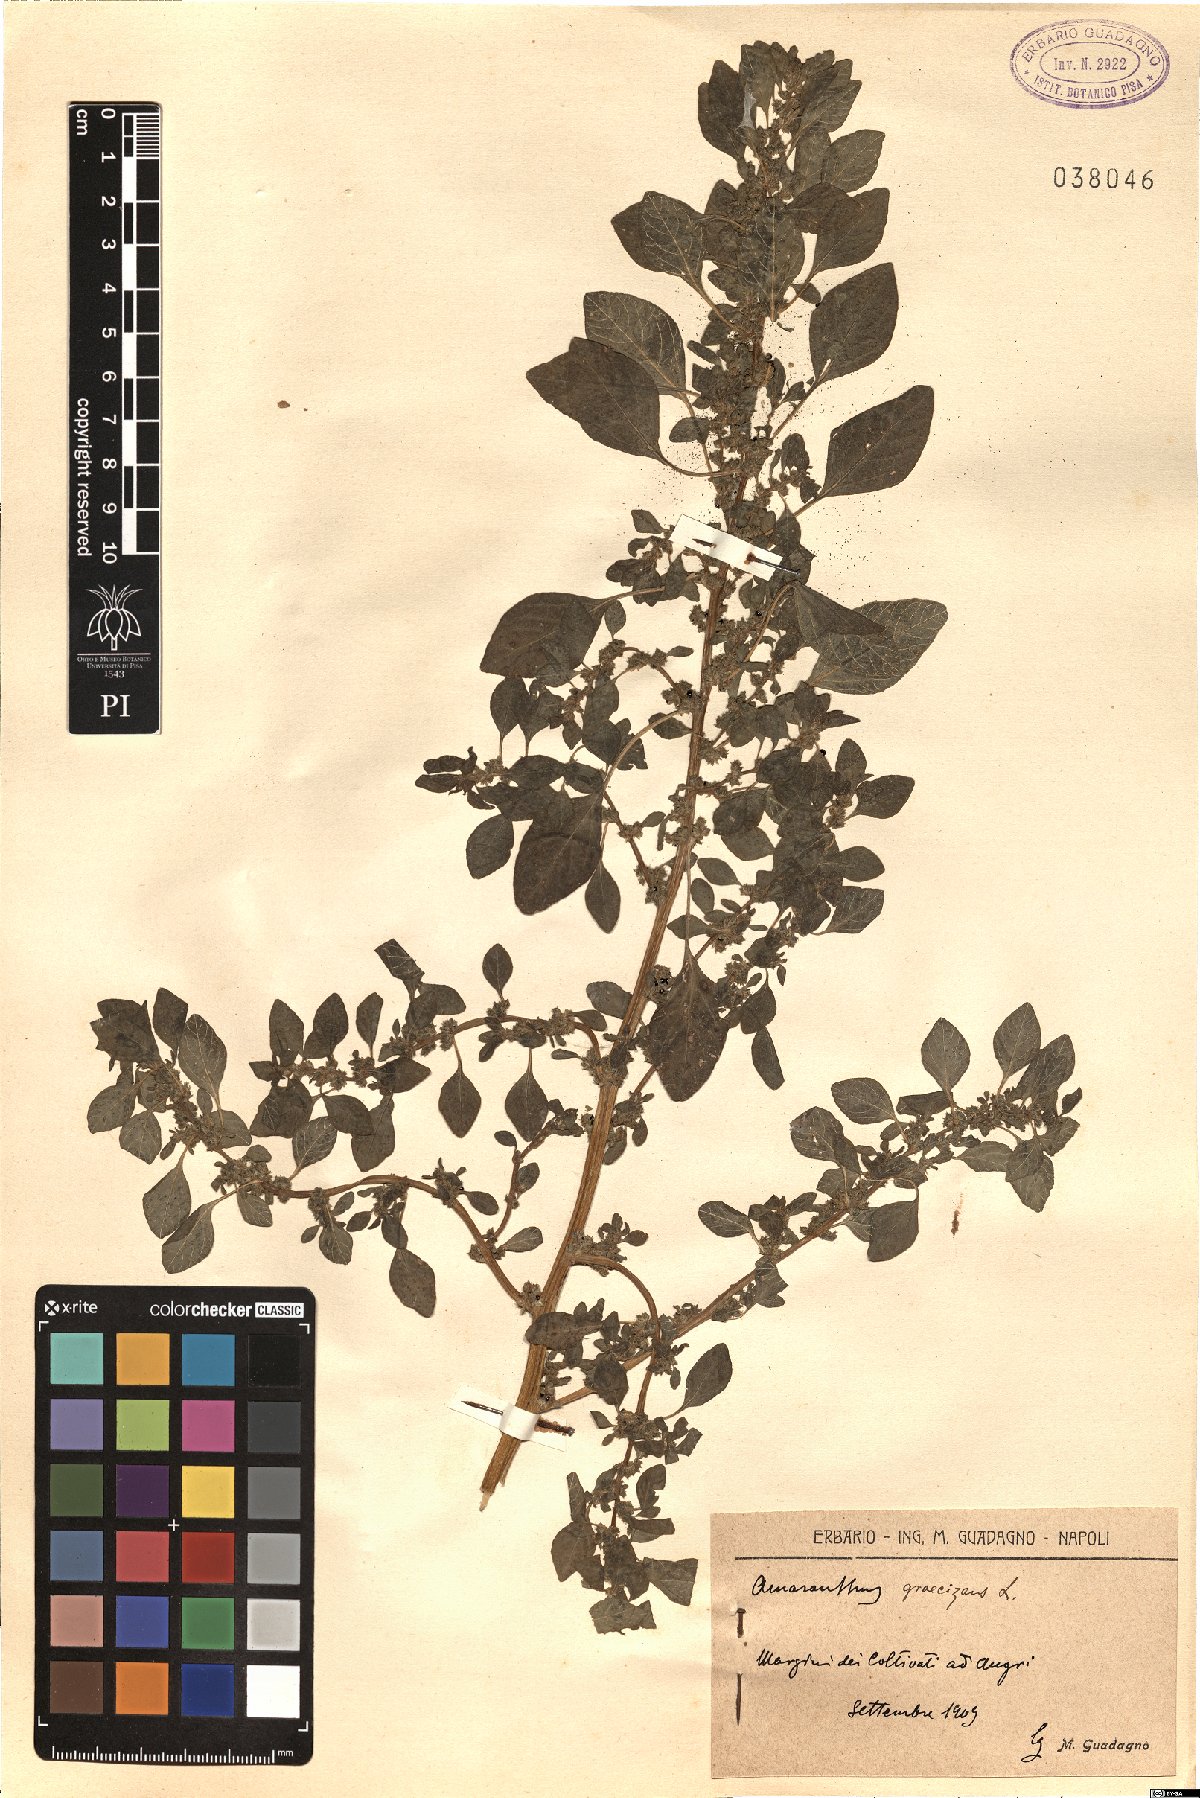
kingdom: Plantae
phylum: Tracheophyta
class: Magnoliopsida
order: Caryophyllales
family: Amaranthaceae
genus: Amaranthus
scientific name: Amaranthus graecizans
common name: Mediterranean amaranth
